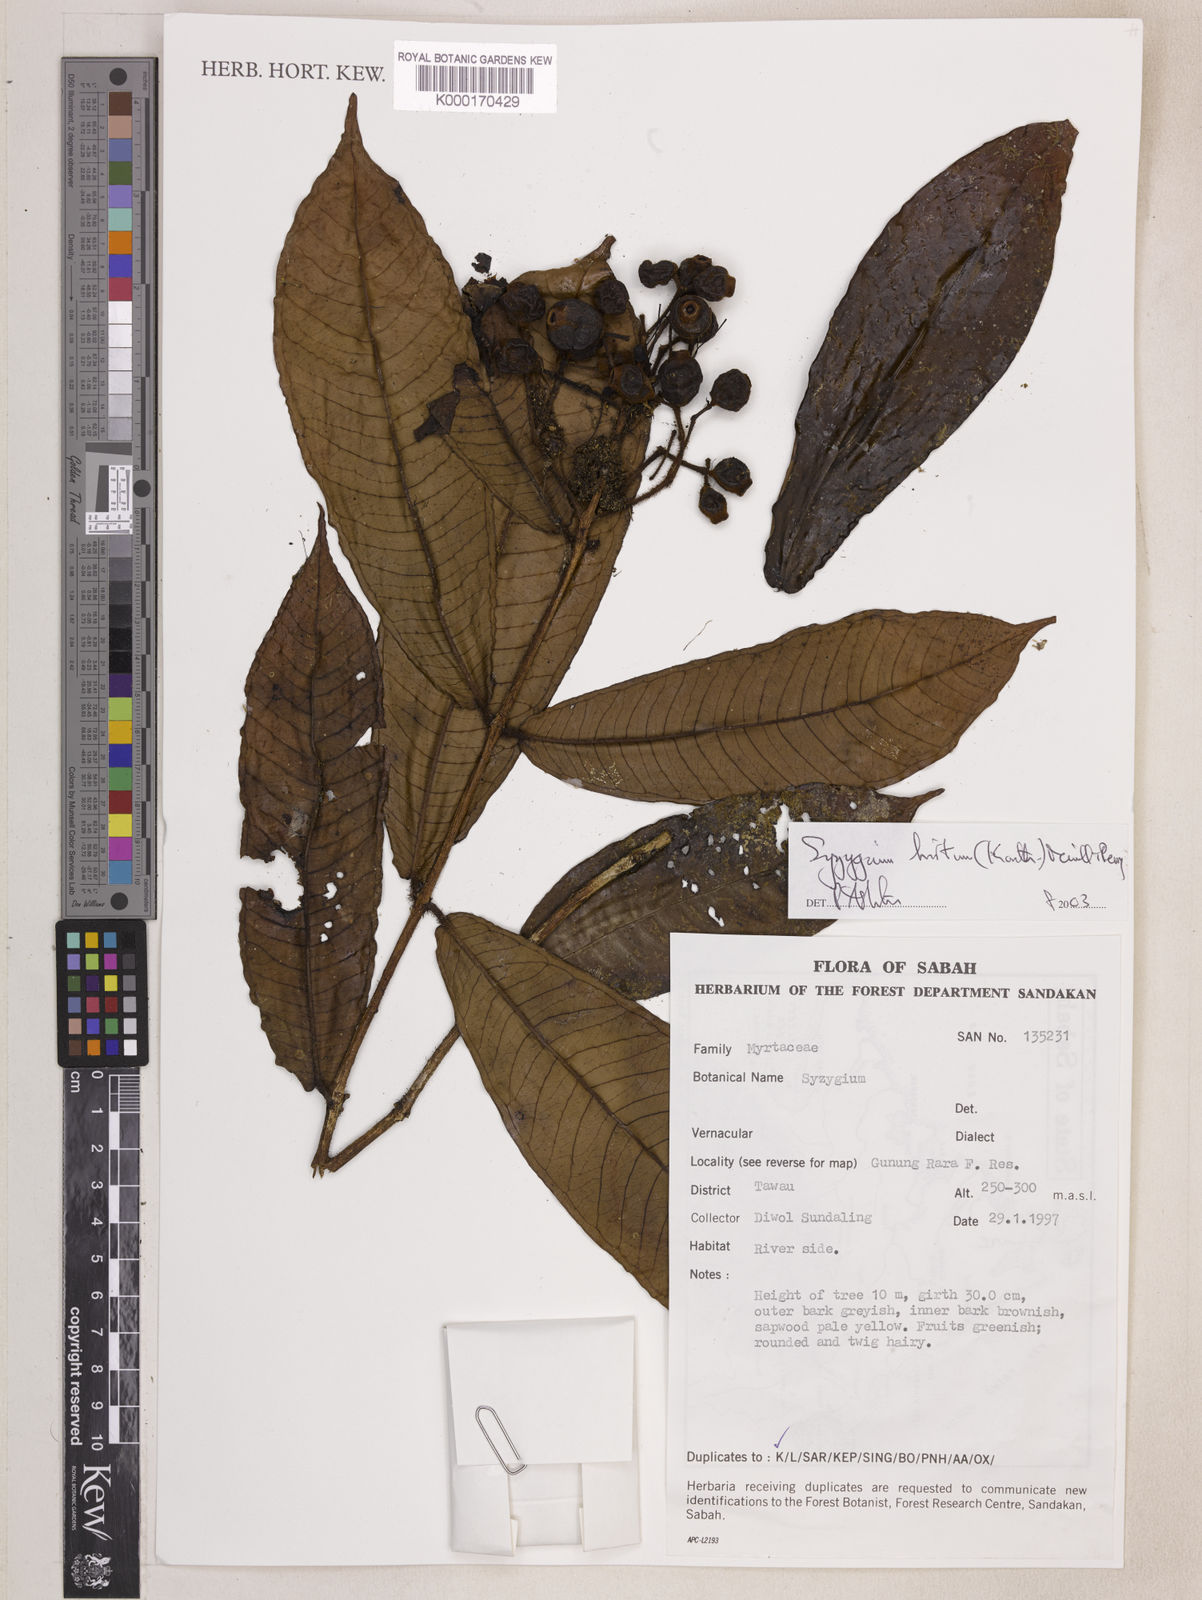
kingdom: Plantae
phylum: Tracheophyta
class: Magnoliopsida
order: Myrtales
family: Myrtaceae
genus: Syzygium
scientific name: Syzygium hirtum
